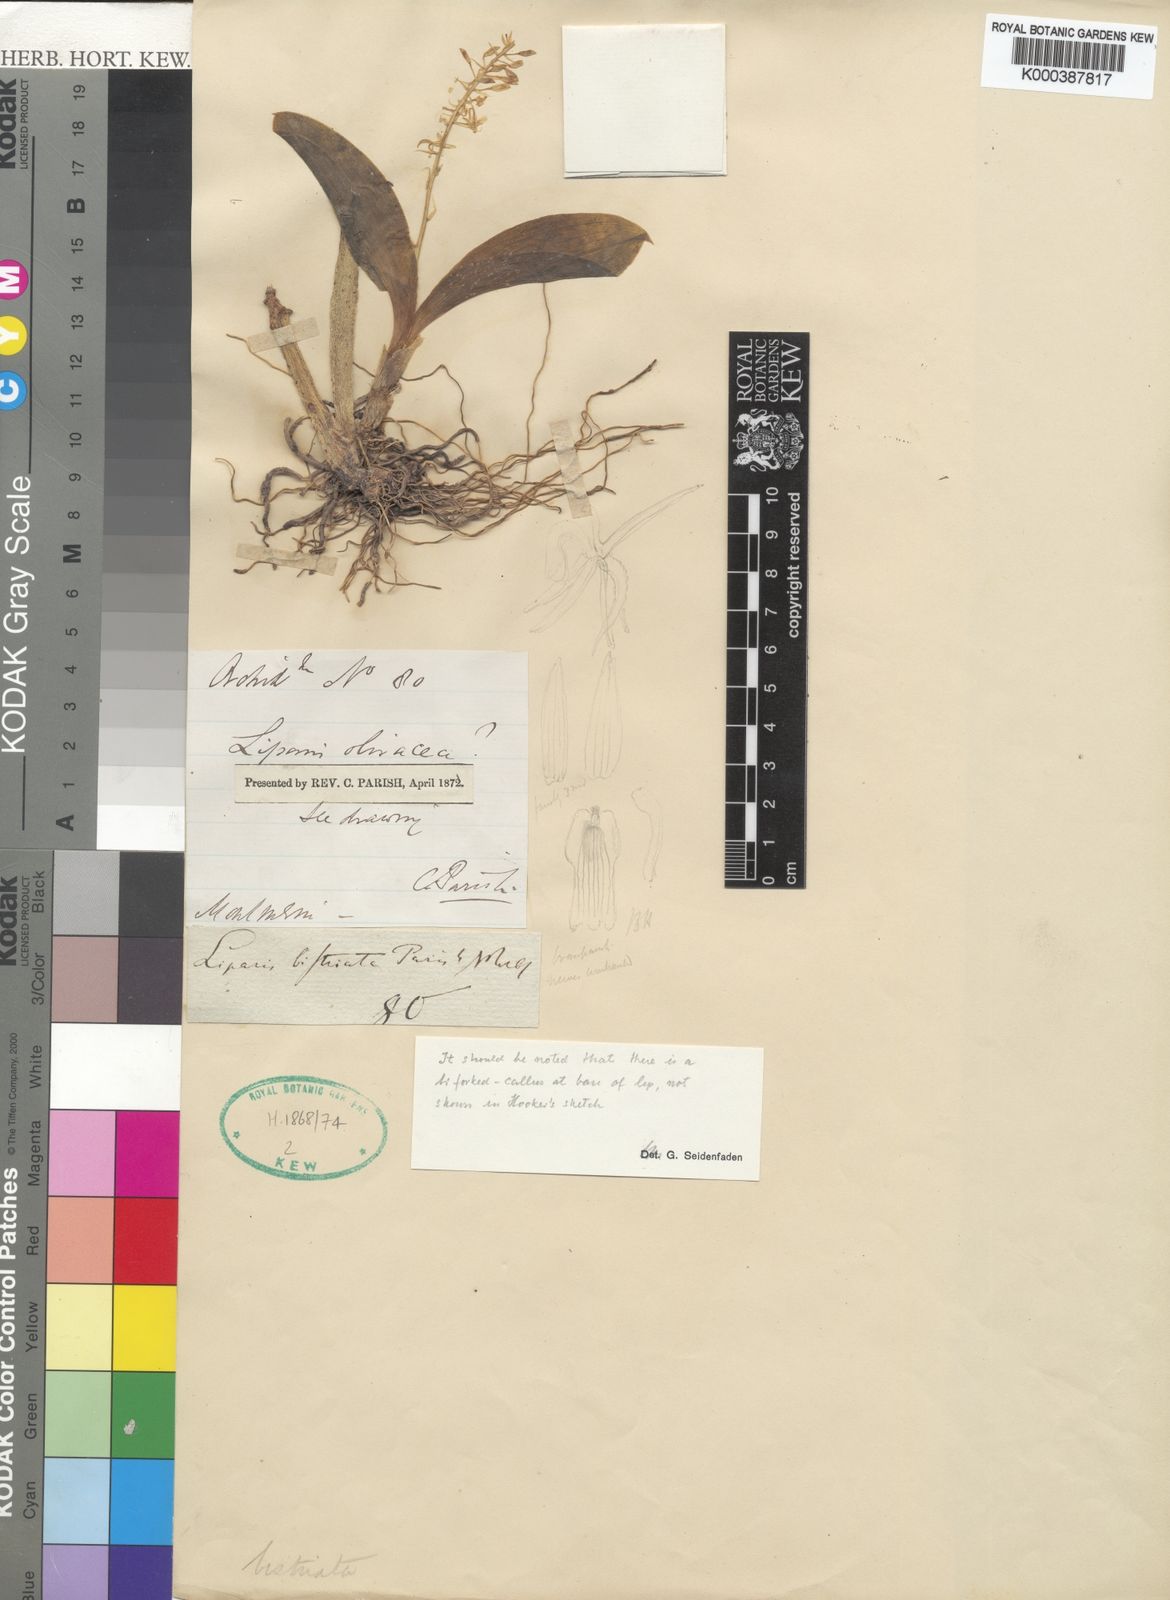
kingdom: Plantae
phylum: Tracheophyta
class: Liliopsida
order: Asparagales
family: Orchidaceae
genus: Liparis
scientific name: Liparis bistriata
